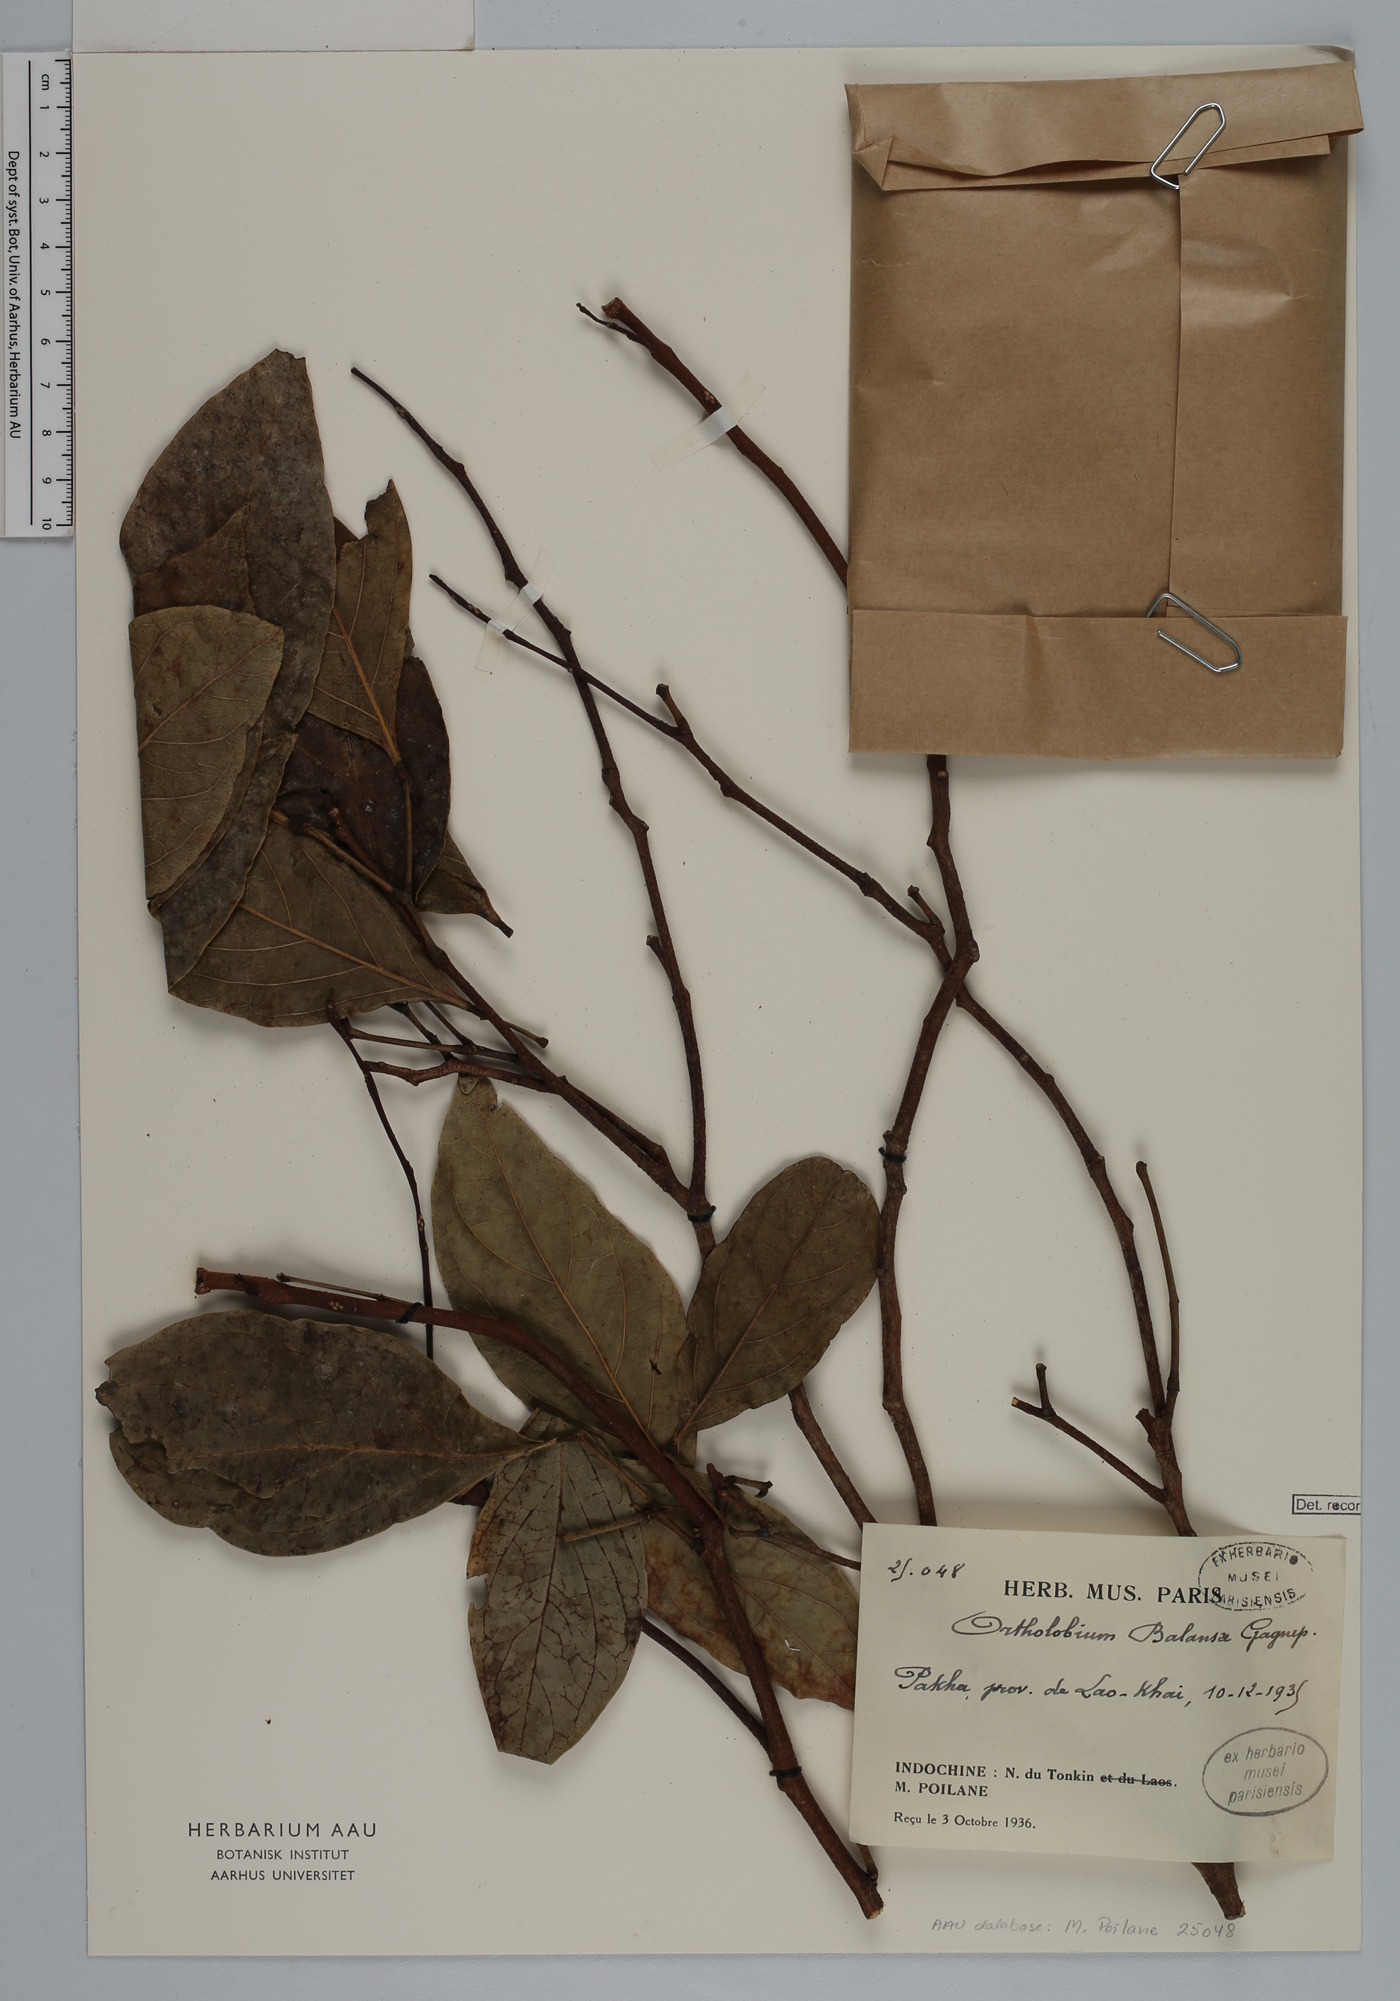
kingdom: Plantae
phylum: Tracheophyta
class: Magnoliopsida
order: Fabales
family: Fabaceae
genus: Archidendron
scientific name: Archidendron balansae
